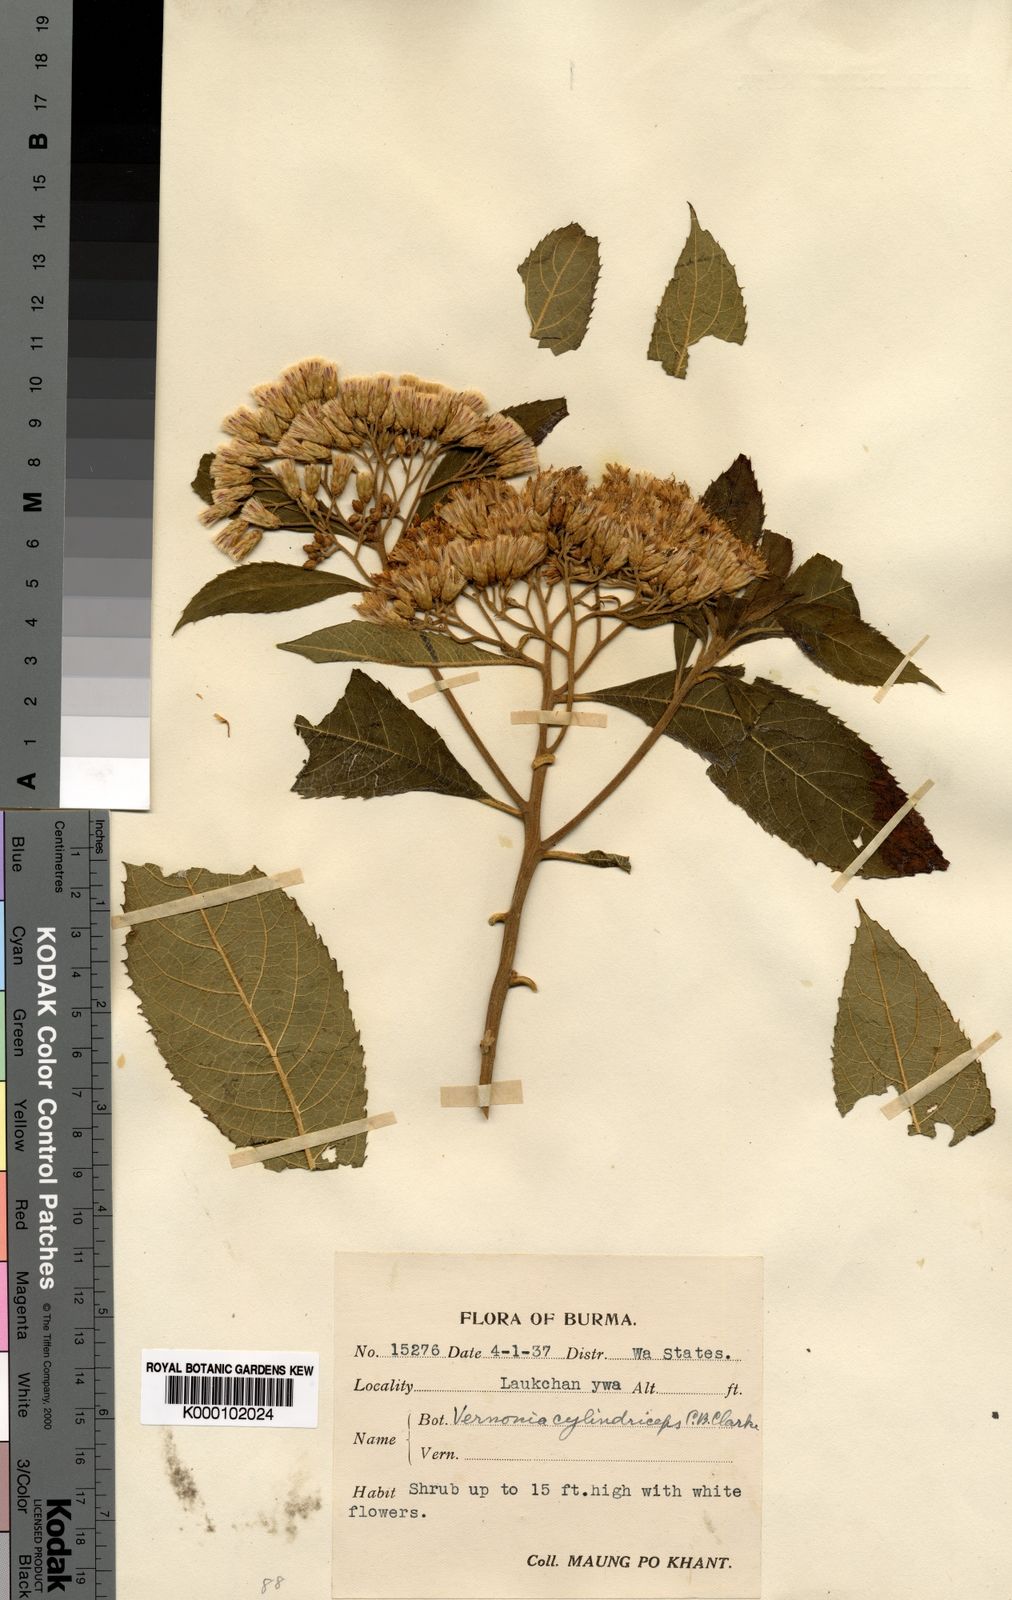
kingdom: Plantae
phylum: Tracheophyta
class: Magnoliopsida
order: Asterales
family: Asteraceae
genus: Vernonia
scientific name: Vernonia
